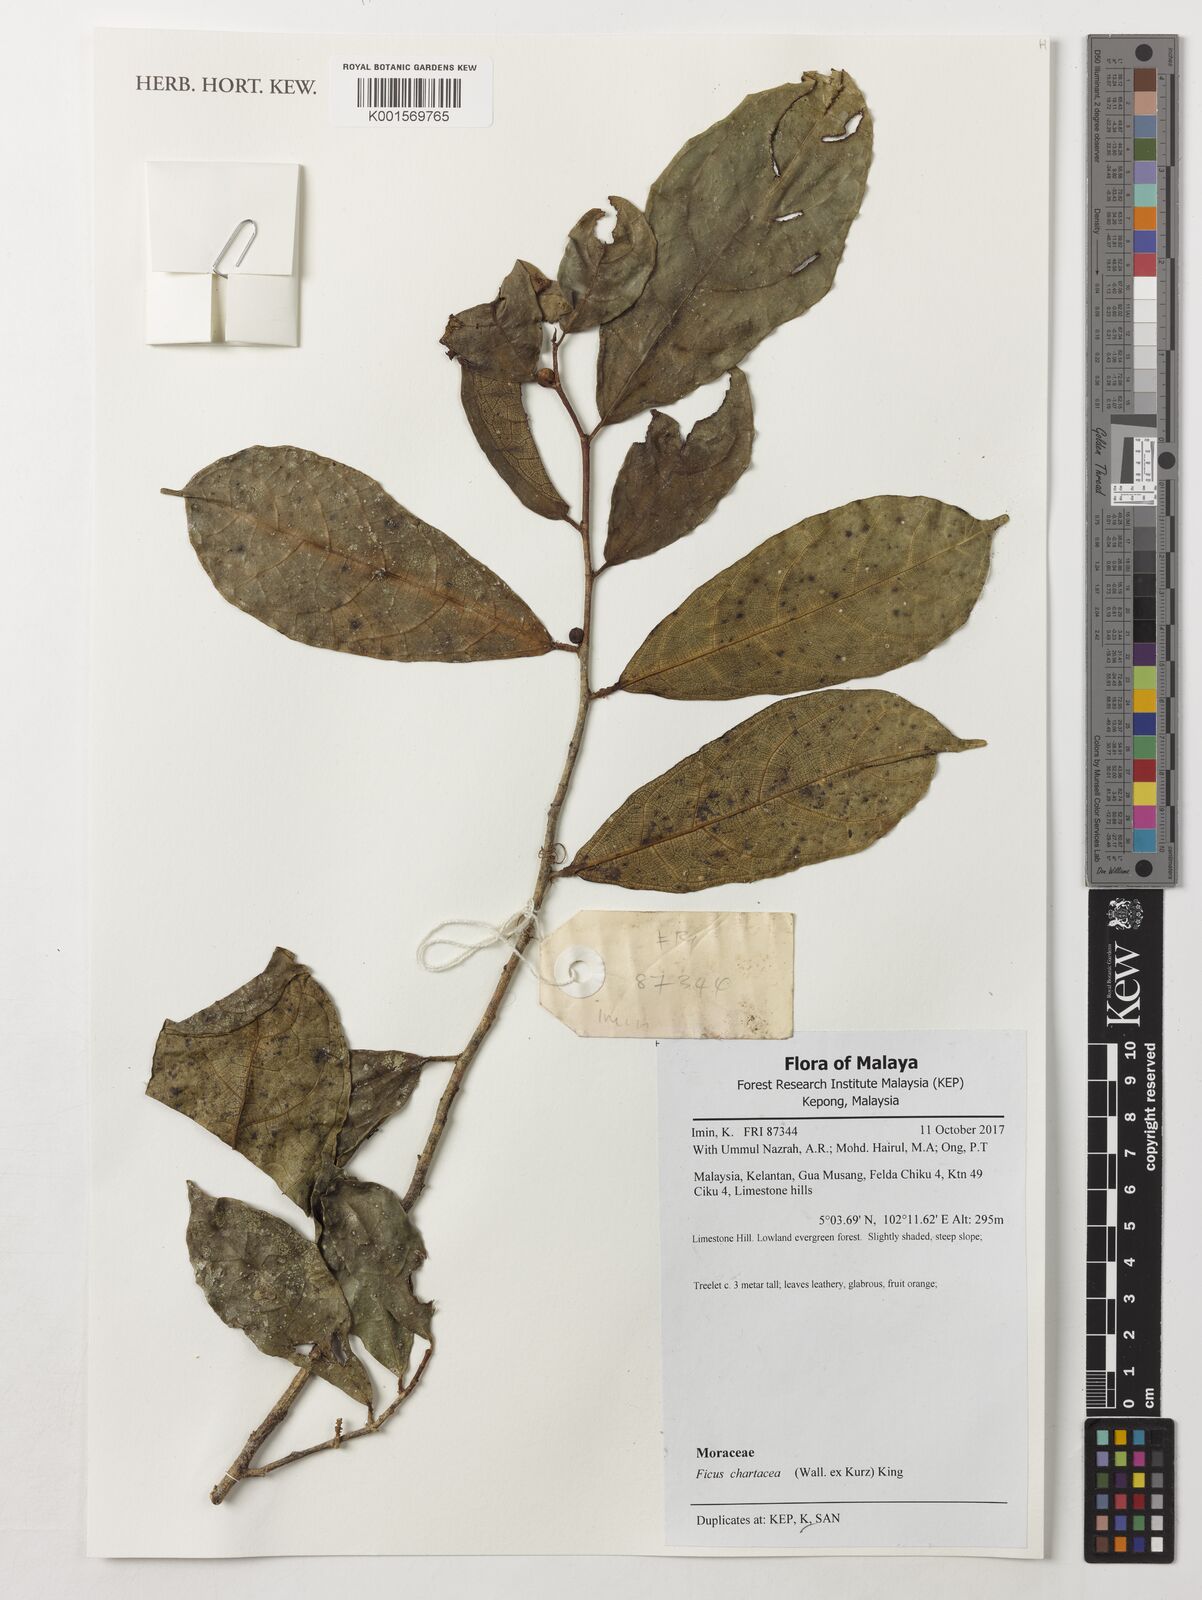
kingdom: Plantae
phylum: Tracheophyta
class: Magnoliopsida
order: Rosales
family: Moraceae
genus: Ficus
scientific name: Ficus chartacea
